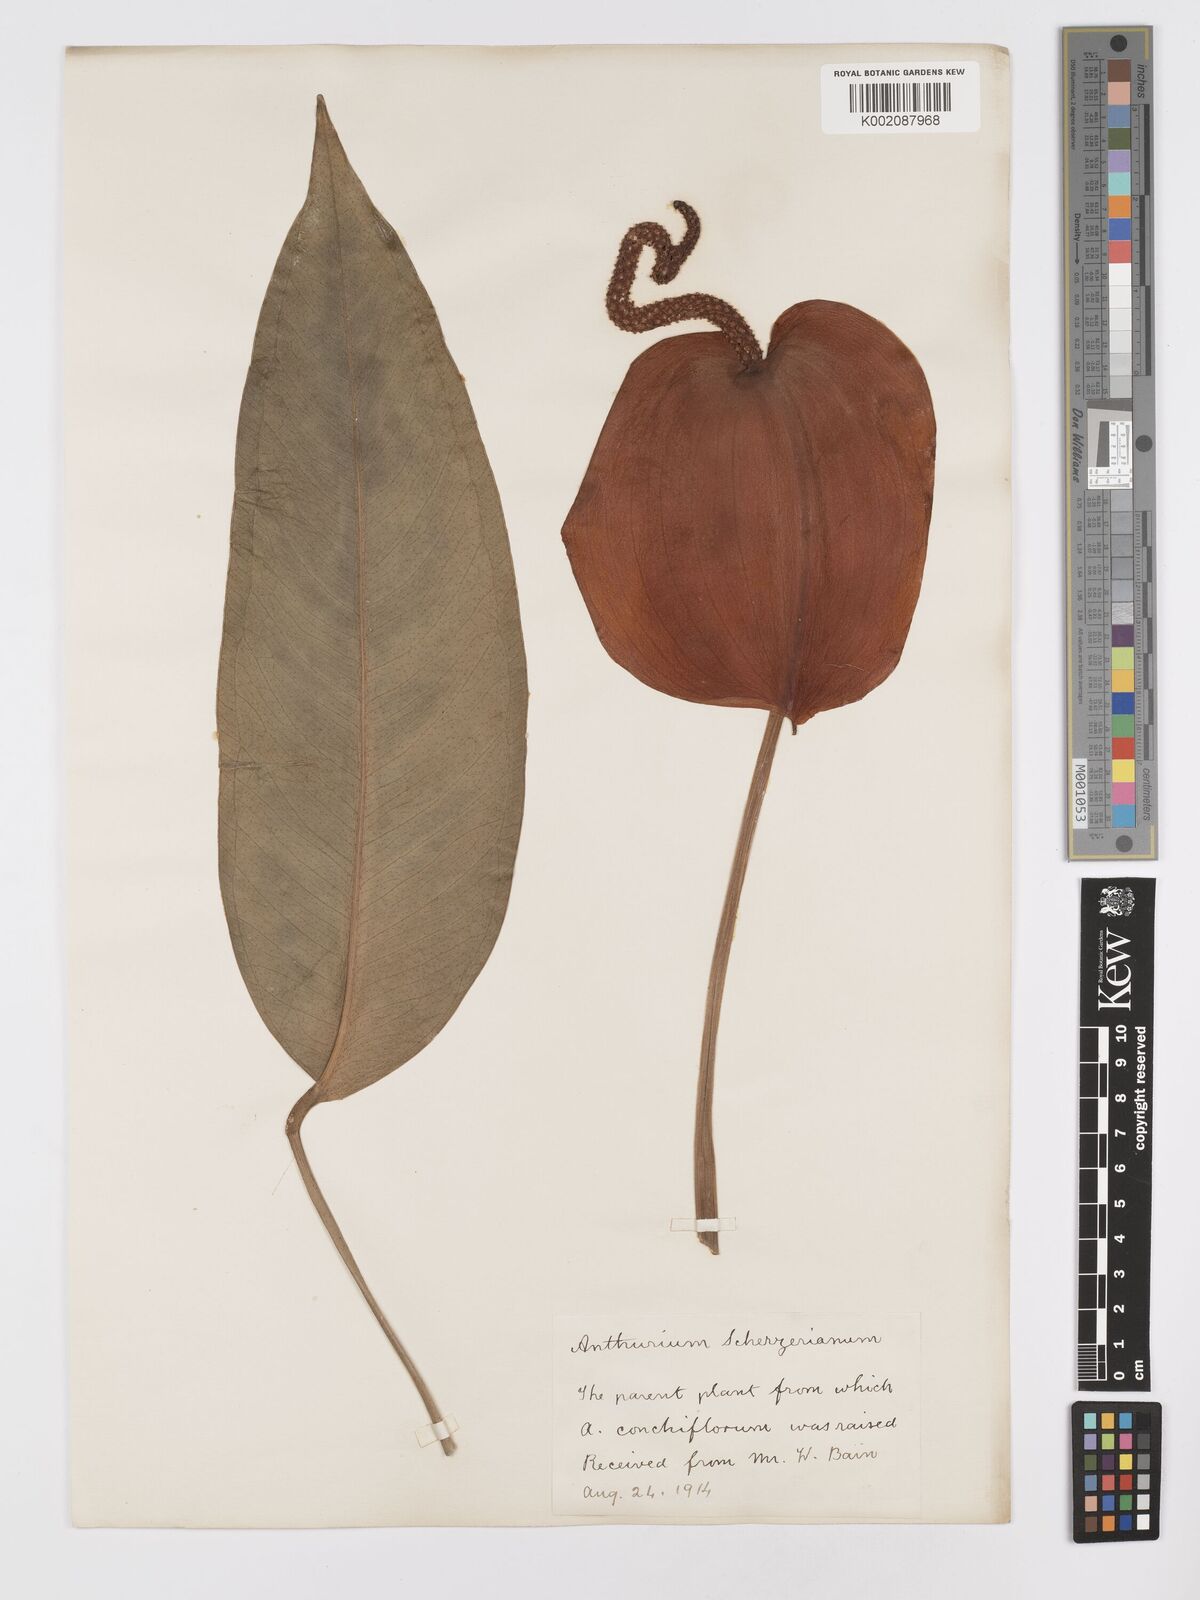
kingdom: Plantae
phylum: Tracheophyta
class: Liliopsida
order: Alismatales
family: Araceae
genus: Anthurium
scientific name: Anthurium scherzerianum
